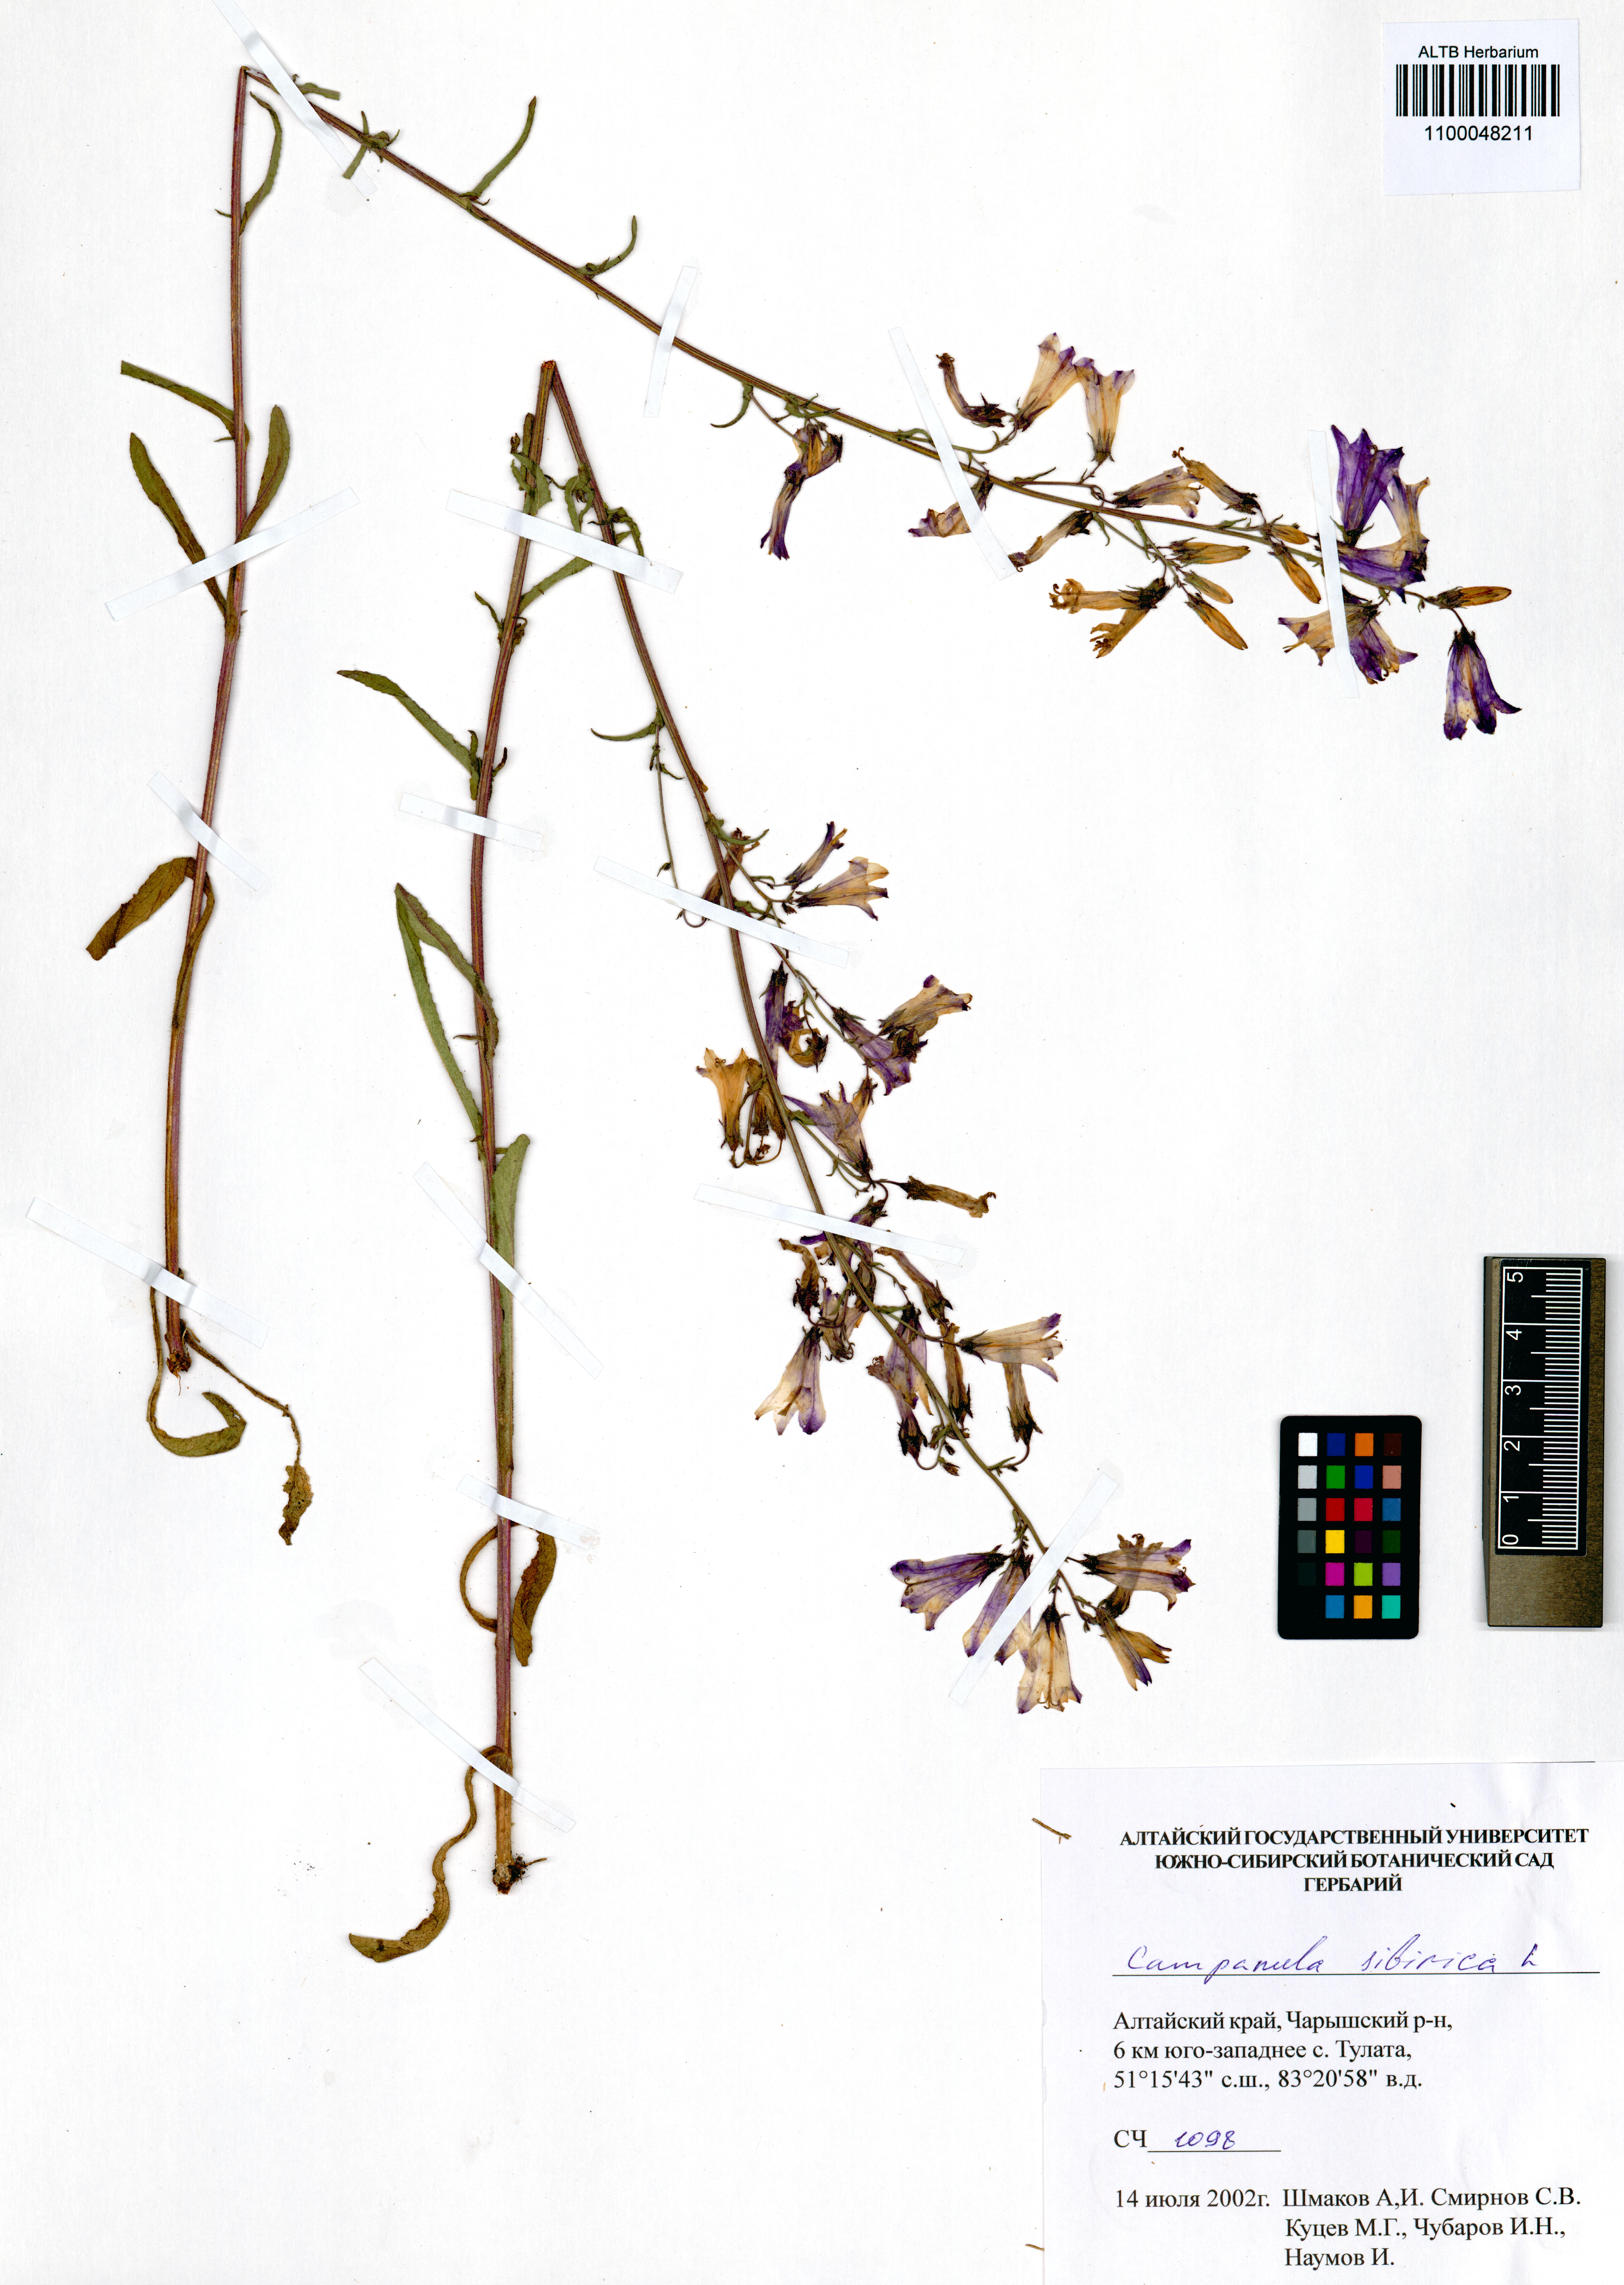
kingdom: Plantae
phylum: Tracheophyta
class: Magnoliopsida
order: Asterales
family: Campanulaceae
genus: Campanula
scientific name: Campanula sibirica
